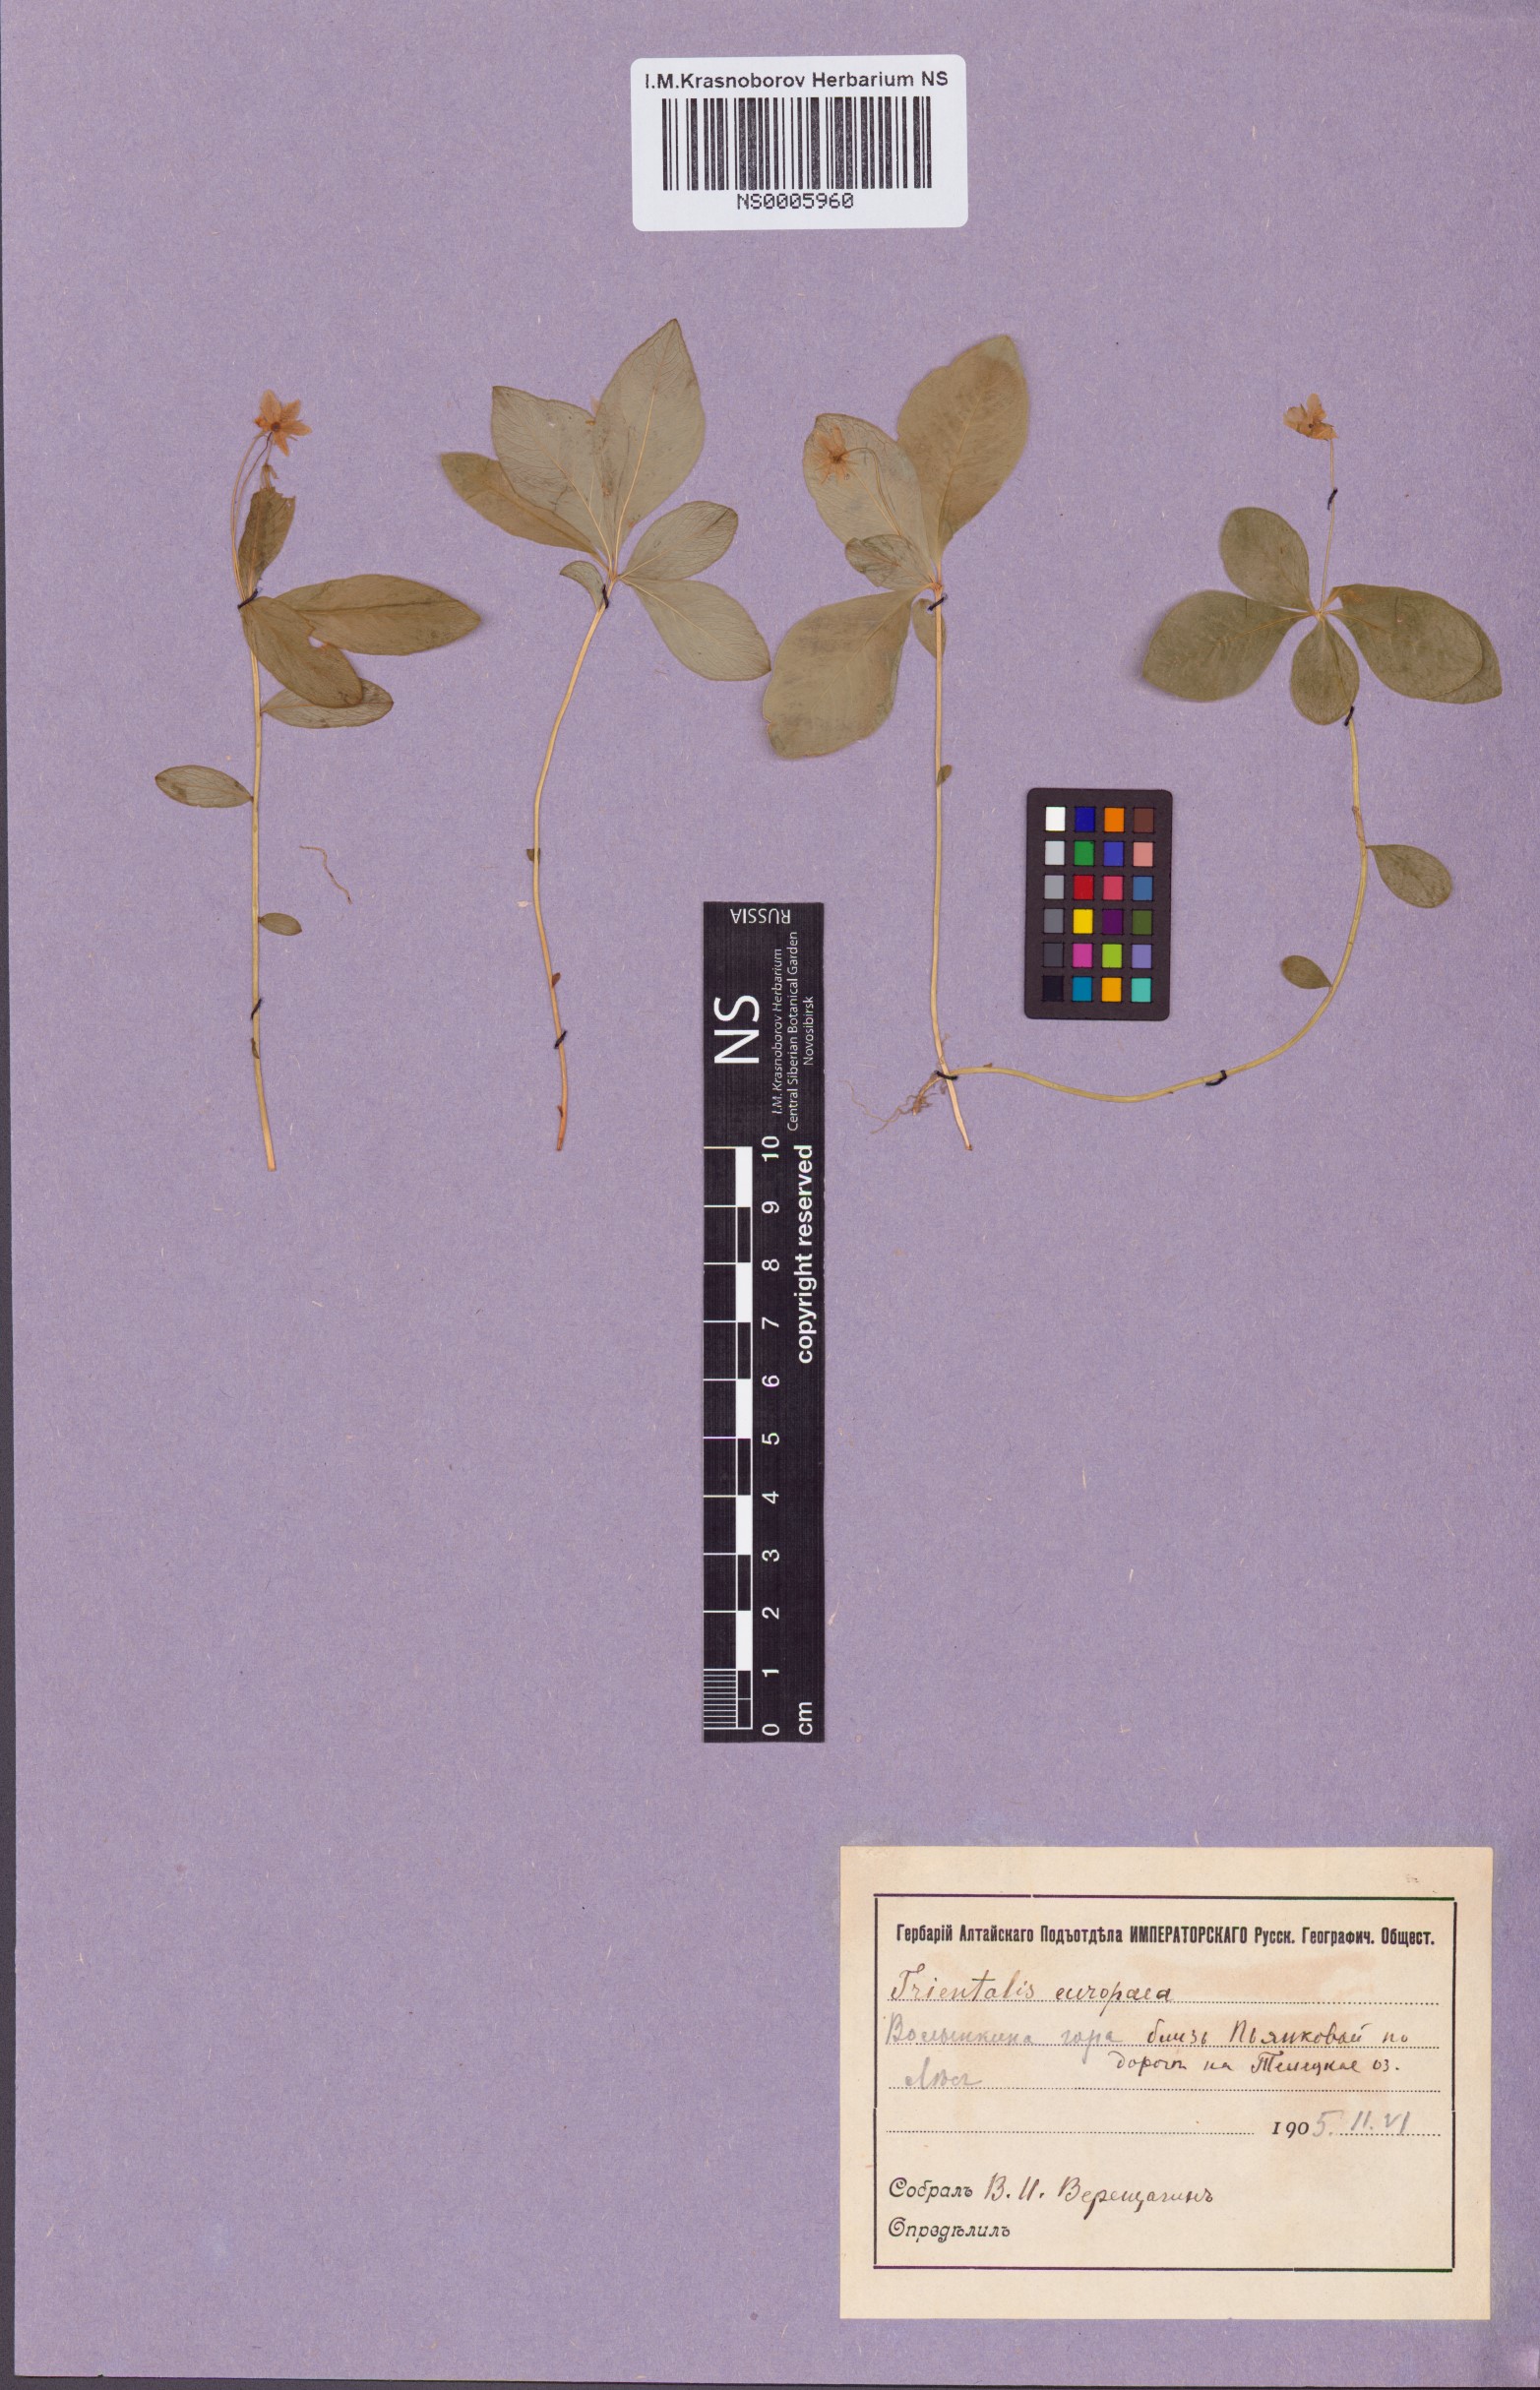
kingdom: Plantae
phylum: Tracheophyta
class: Magnoliopsida
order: Ericales
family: Primulaceae
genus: Lysimachia
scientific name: Lysimachia europaea
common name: Arctic starflower
